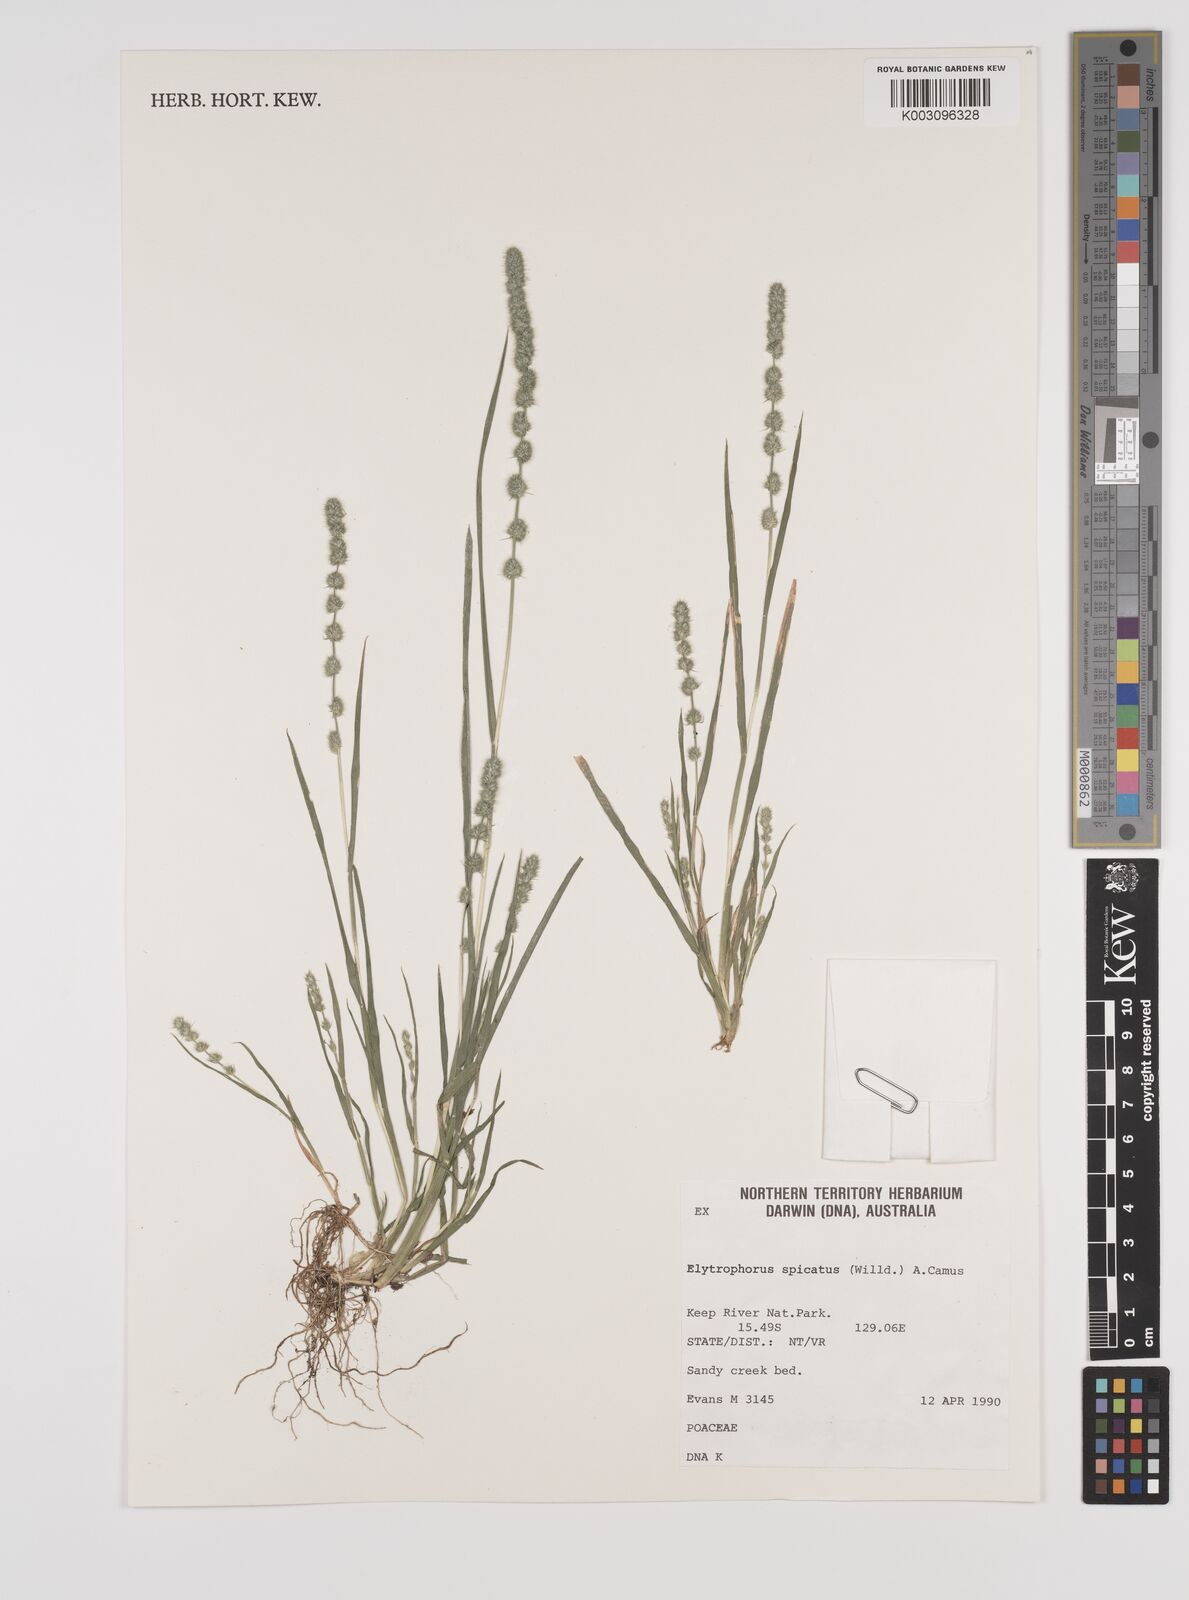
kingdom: Plantae
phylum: Tracheophyta
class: Liliopsida
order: Poales
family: Poaceae
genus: Elytrophorus
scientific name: Elytrophorus spicatus
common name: Spike grass
